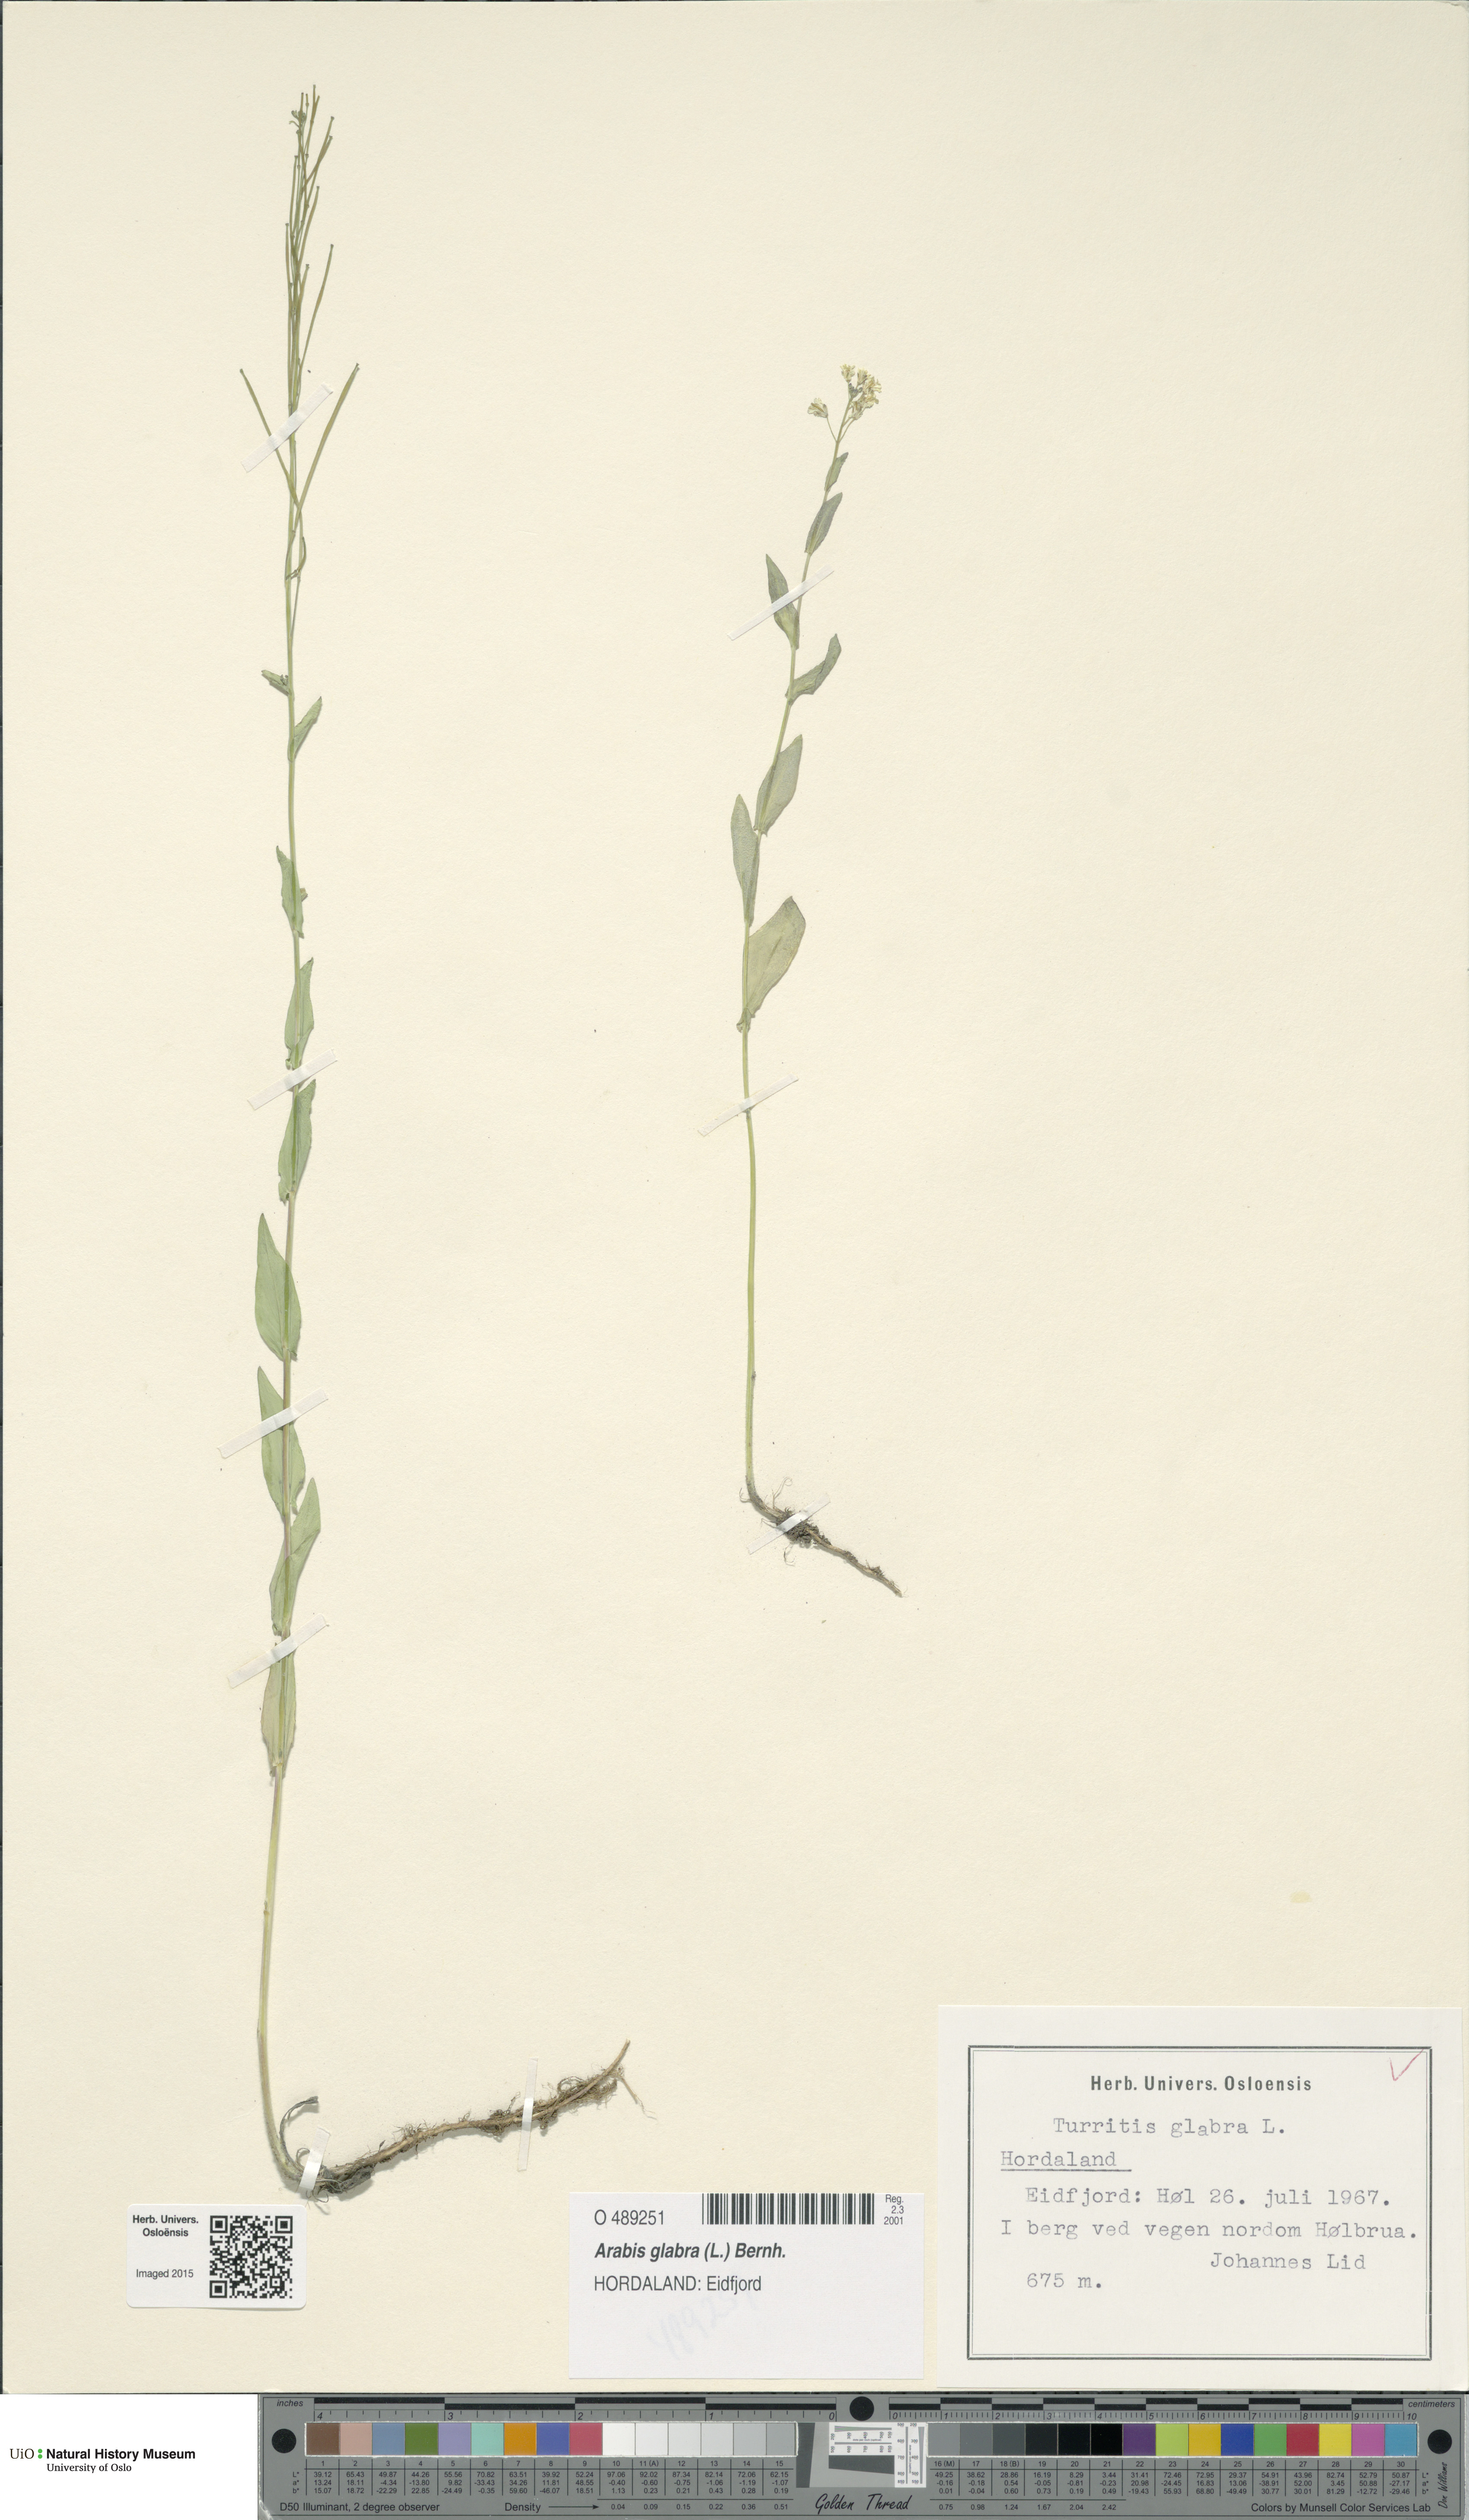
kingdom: Plantae
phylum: Tracheophyta
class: Magnoliopsida
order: Brassicales
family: Brassicaceae
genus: Turritis
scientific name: Turritis glabra
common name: Tower rockcress
